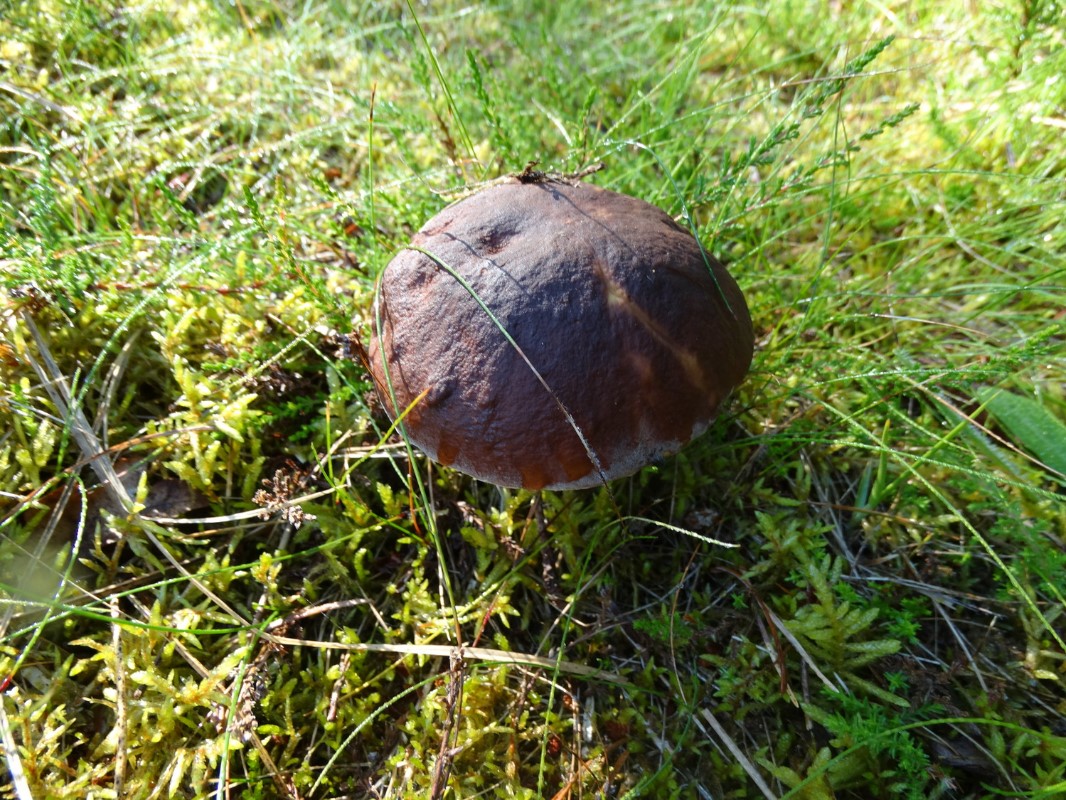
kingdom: Fungi
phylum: Basidiomycota
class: Agaricomycetes
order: Boletales
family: Boletaceae
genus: Boletus
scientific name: Boletus edulis
